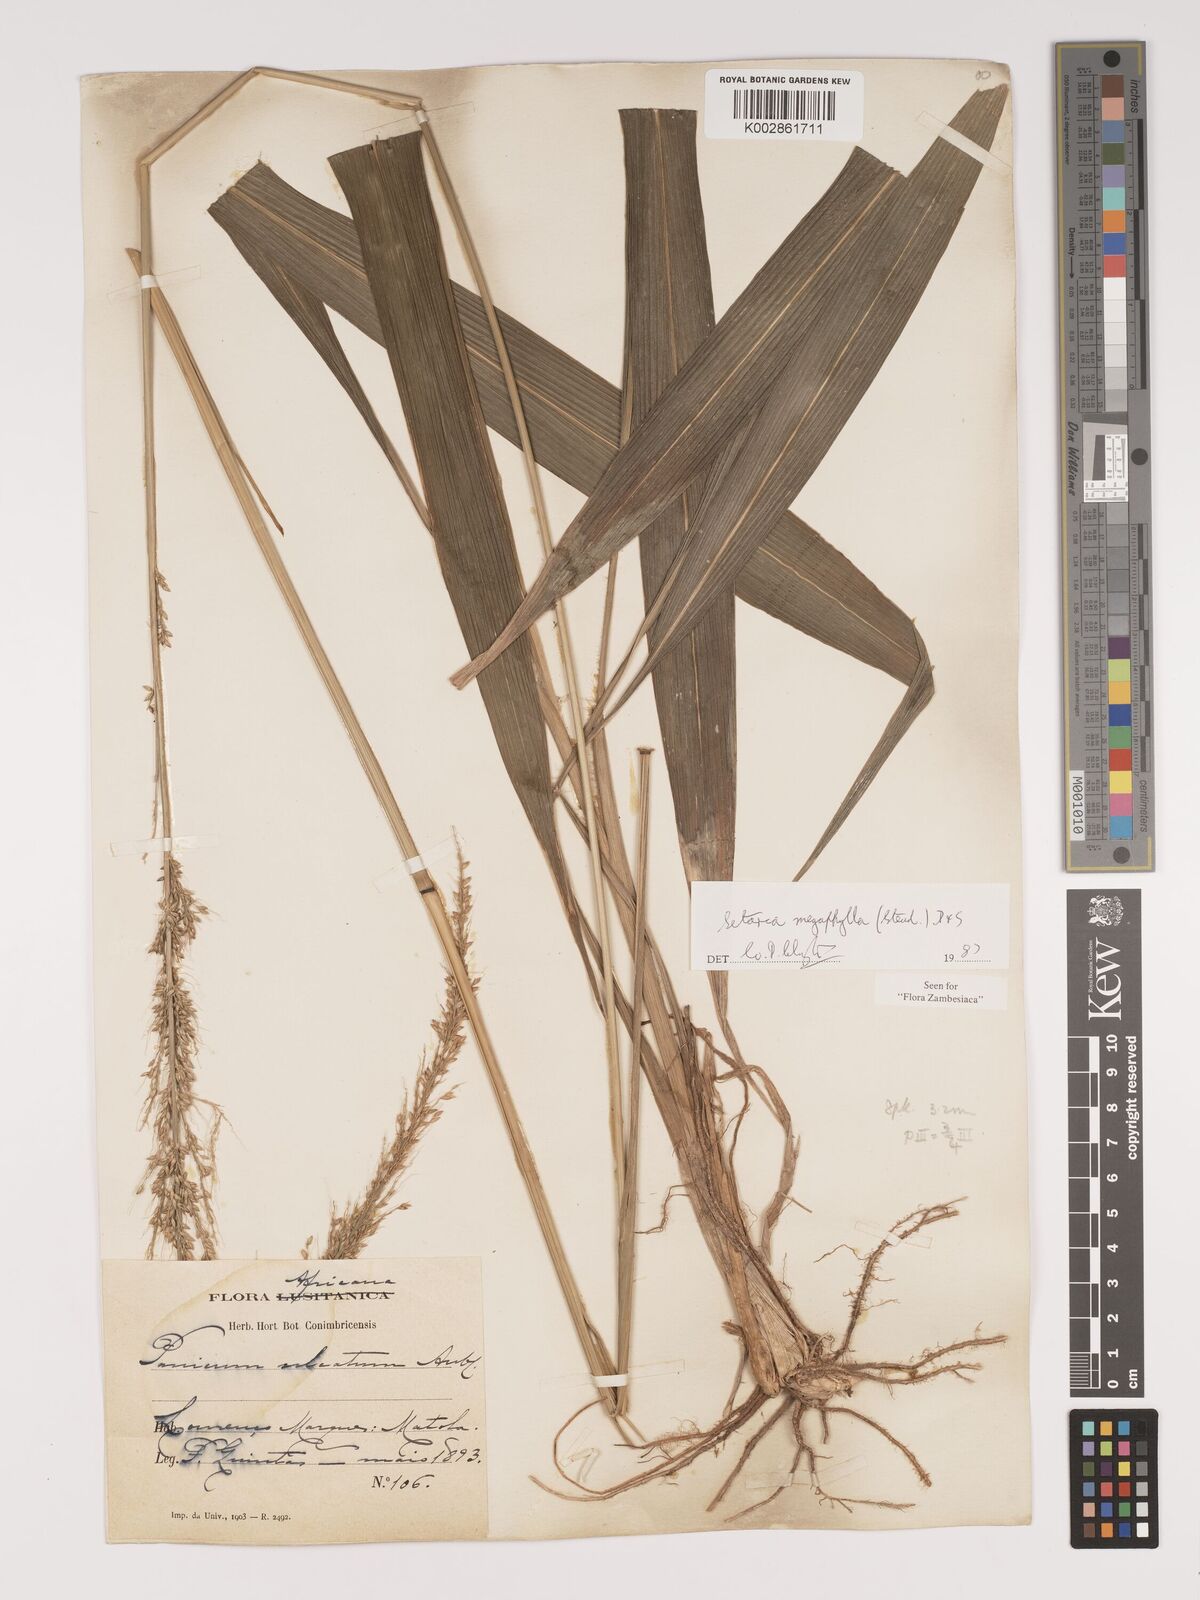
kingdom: Plantae
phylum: Tracheophyta
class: Liliopsida
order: Poales
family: Poaceae
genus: Setaria
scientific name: Setaria megaphylla
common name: Bigleaf bristlegrass
